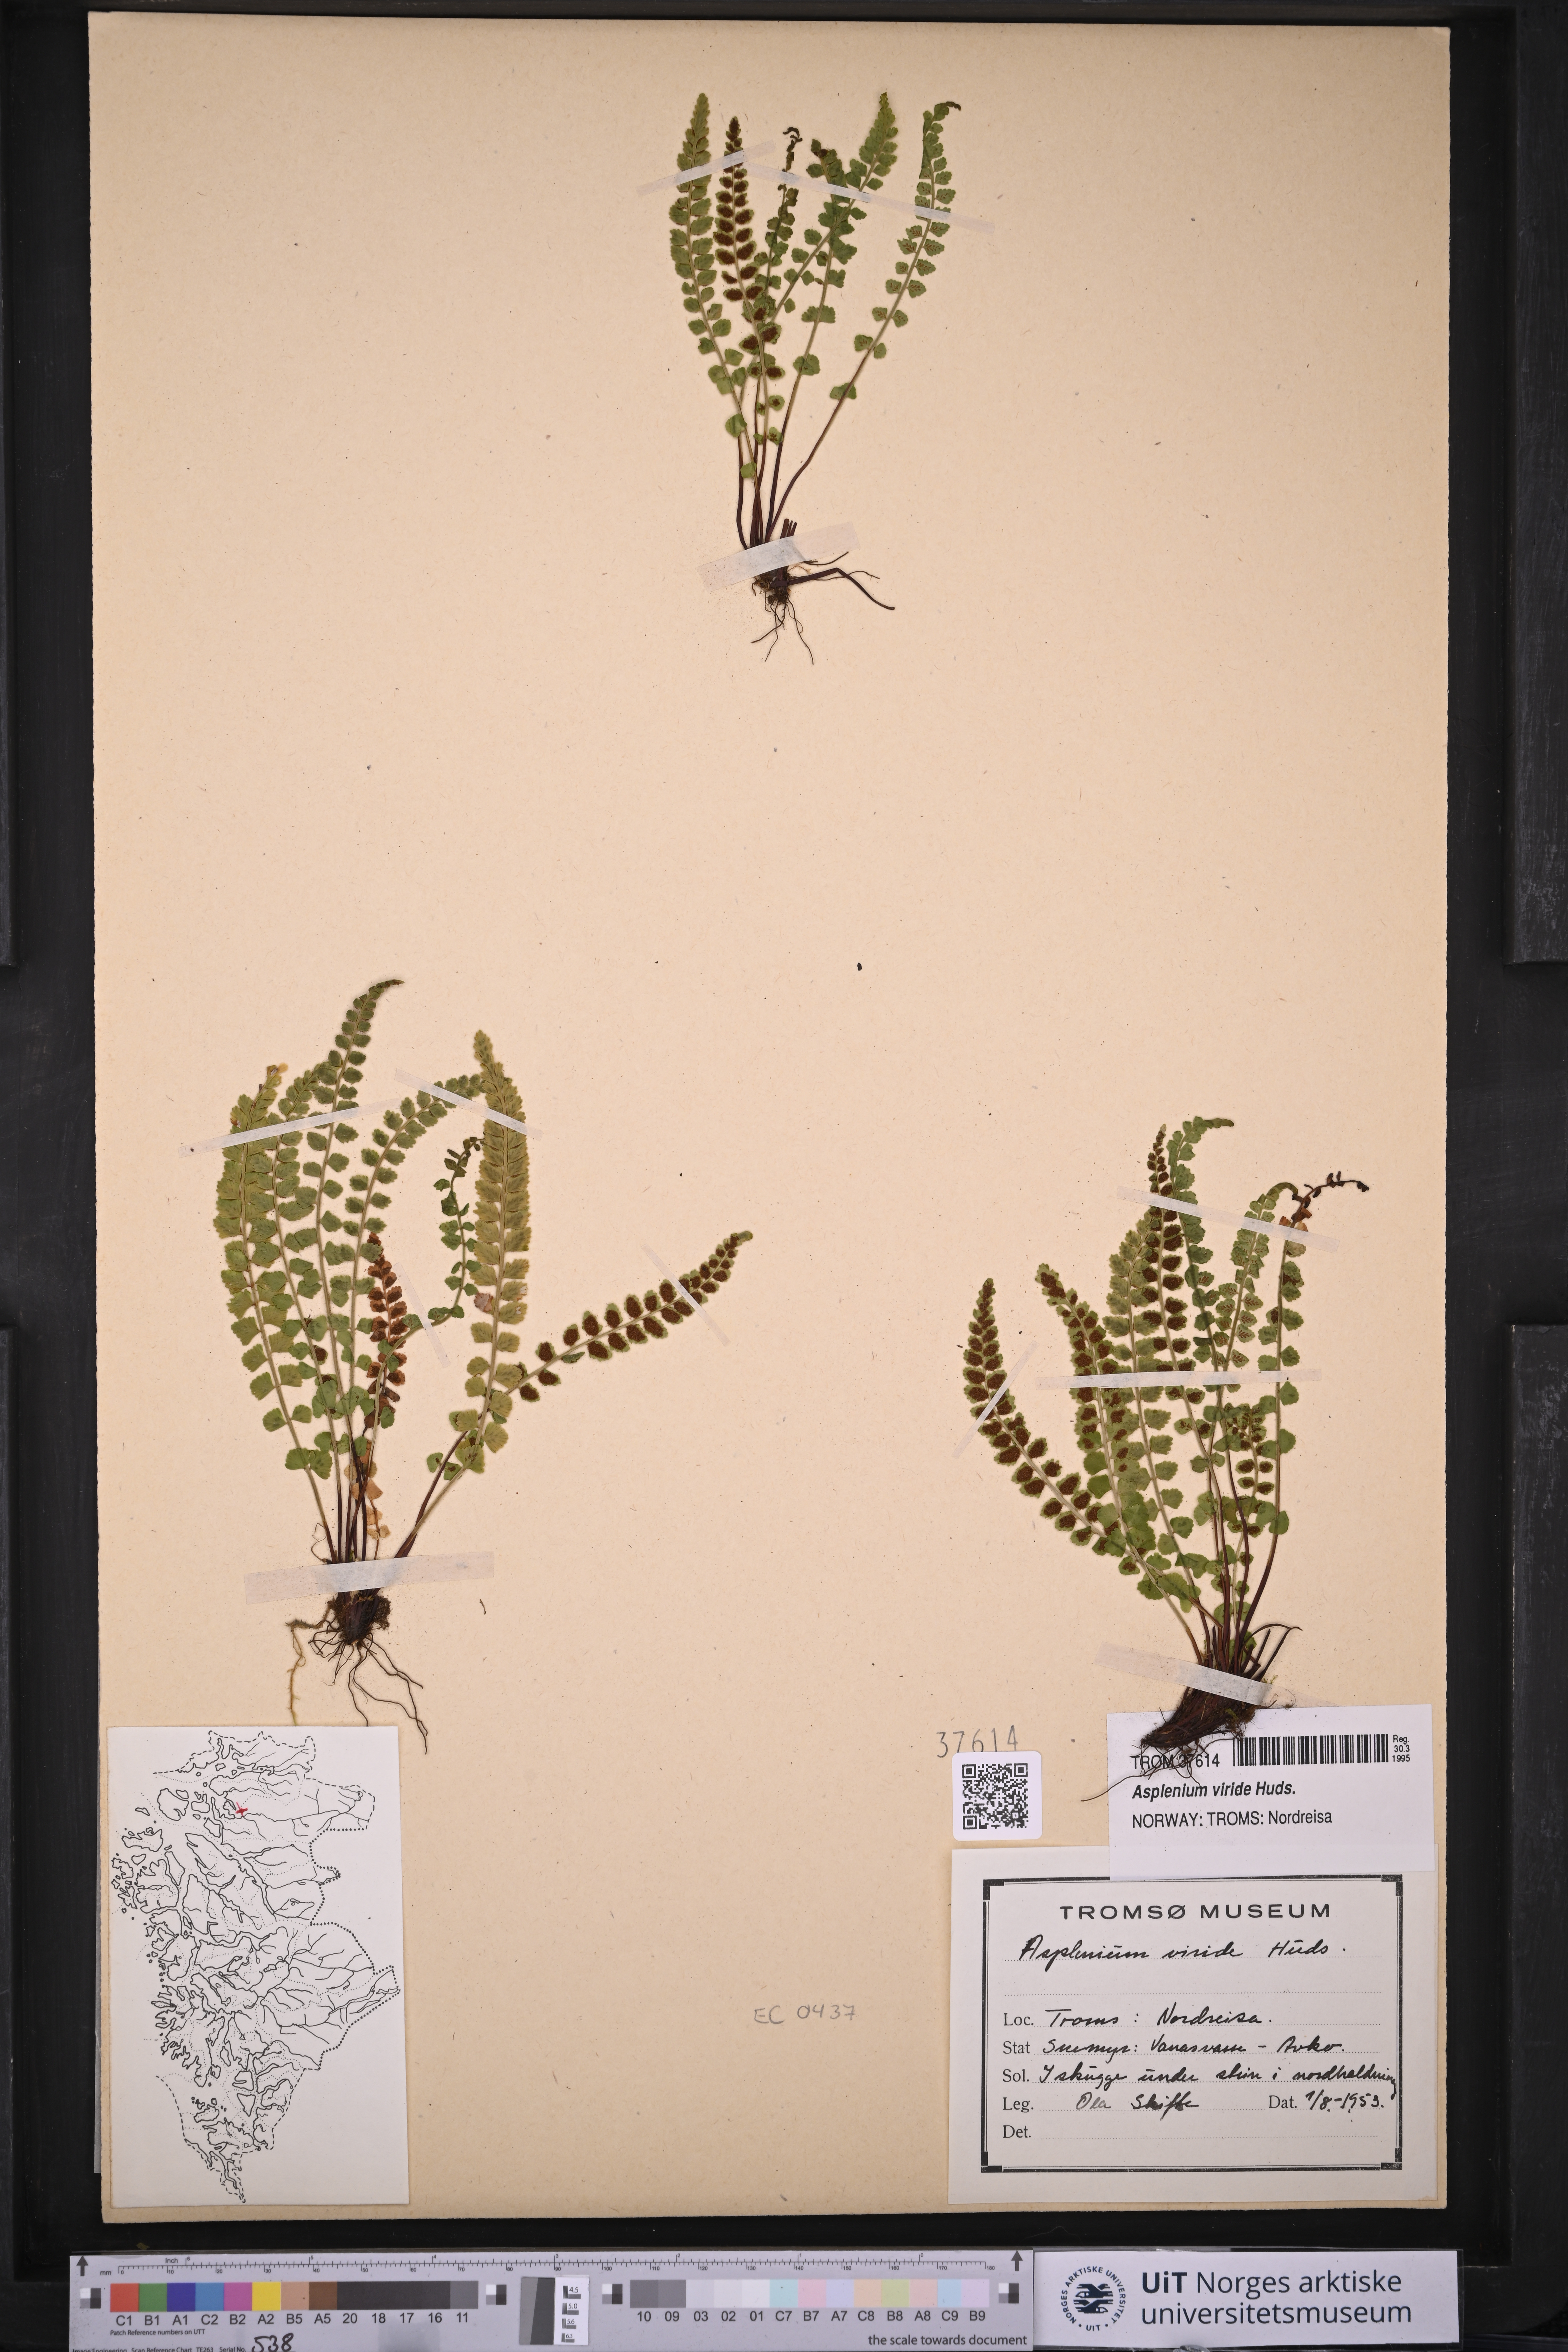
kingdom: Plantae
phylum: Tracheophyta
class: Polypodiopsida
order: Polypodiales
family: Aspleniaceae
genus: Asplenium
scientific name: Asplenium viride
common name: Green spleenwort
